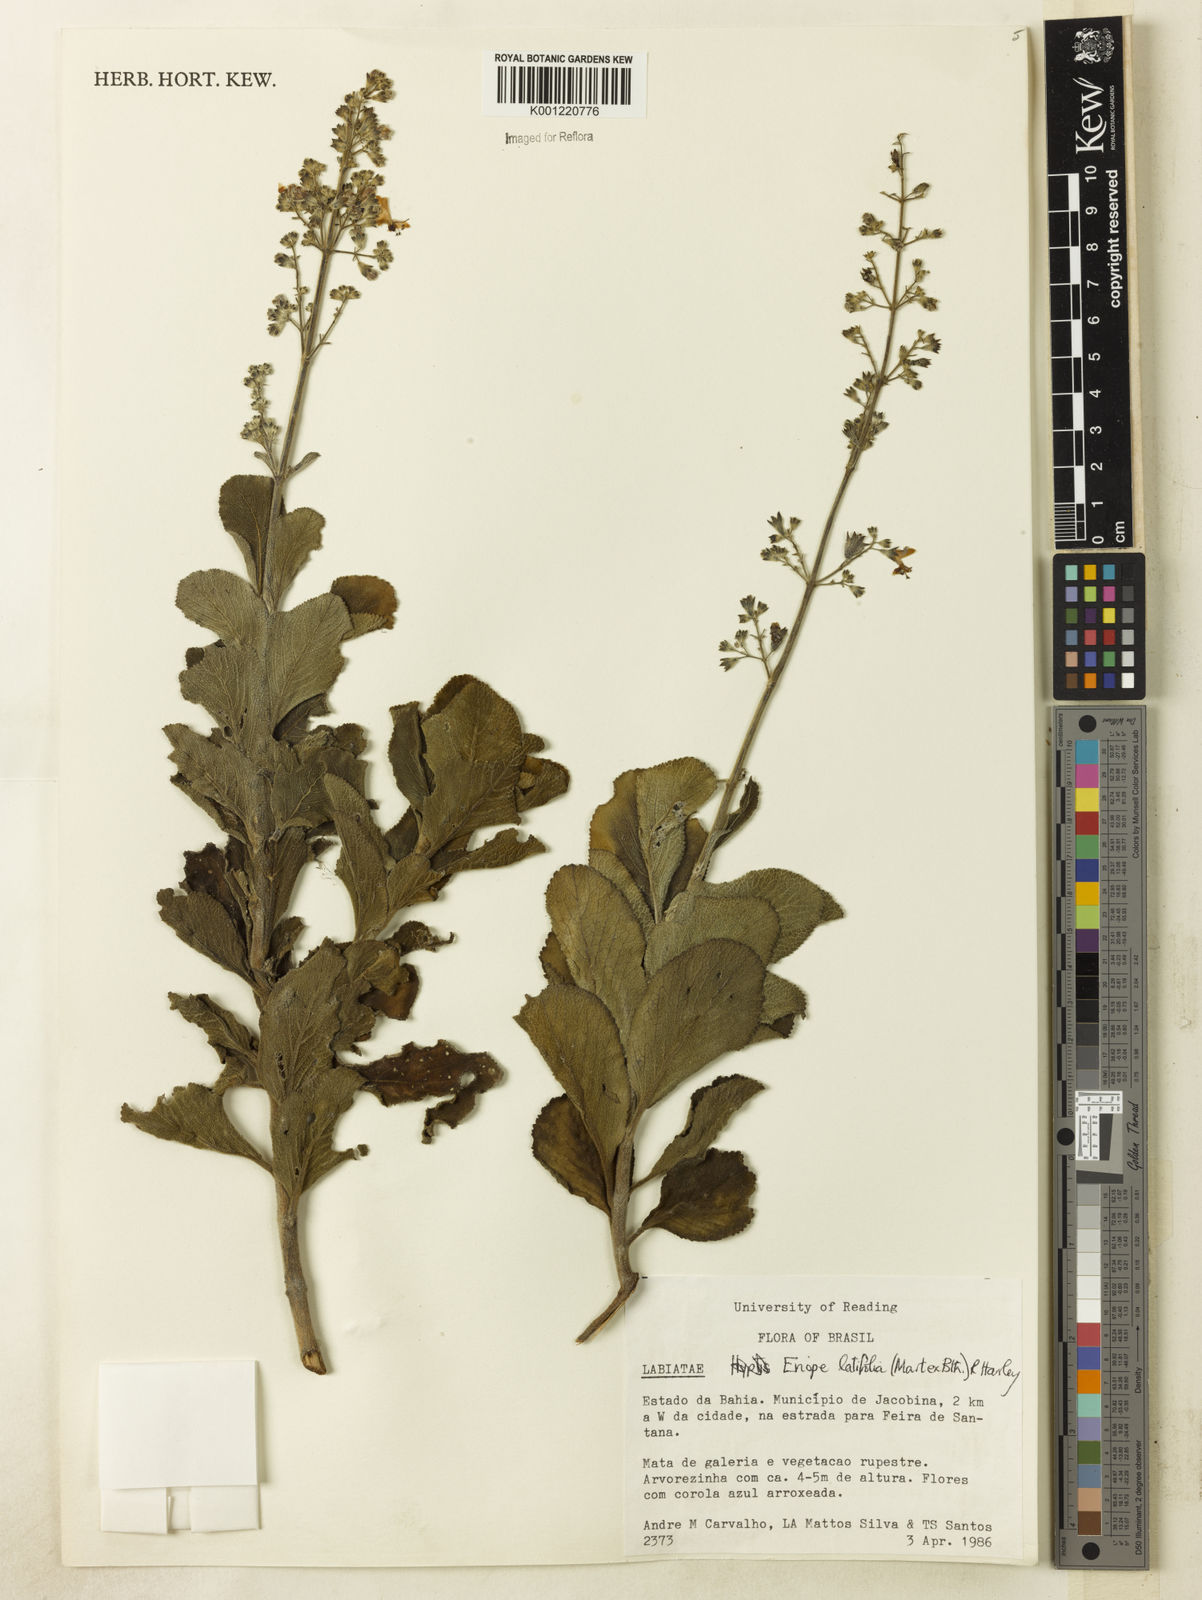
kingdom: Plantae
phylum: Tracheophyta
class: Magnoliopsida
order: Lamiales
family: Lamiaceae
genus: Eriope
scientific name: Eriope latifolia
